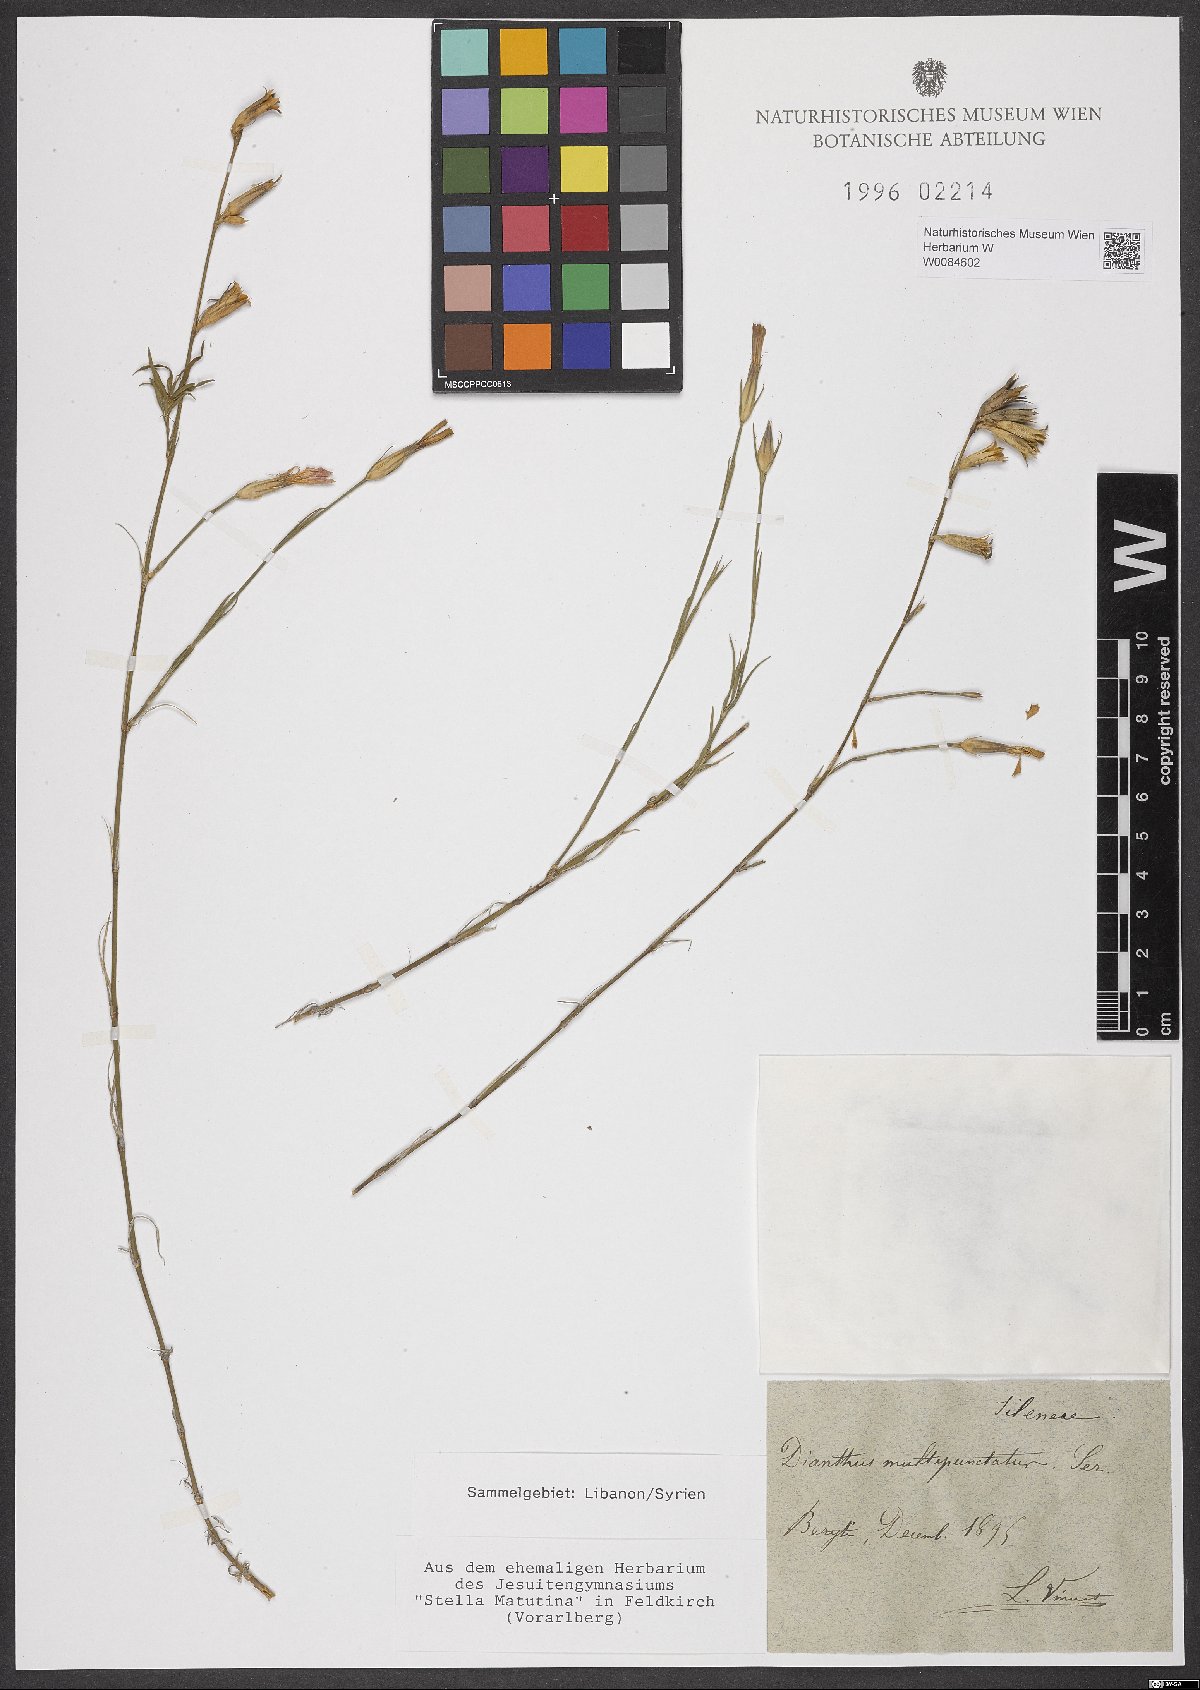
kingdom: Plantae
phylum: Tracheophyta
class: Magnoliopsida
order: Caryophyllales
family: Caryophyllaceae
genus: Dianthus
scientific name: Dianthus strictus
